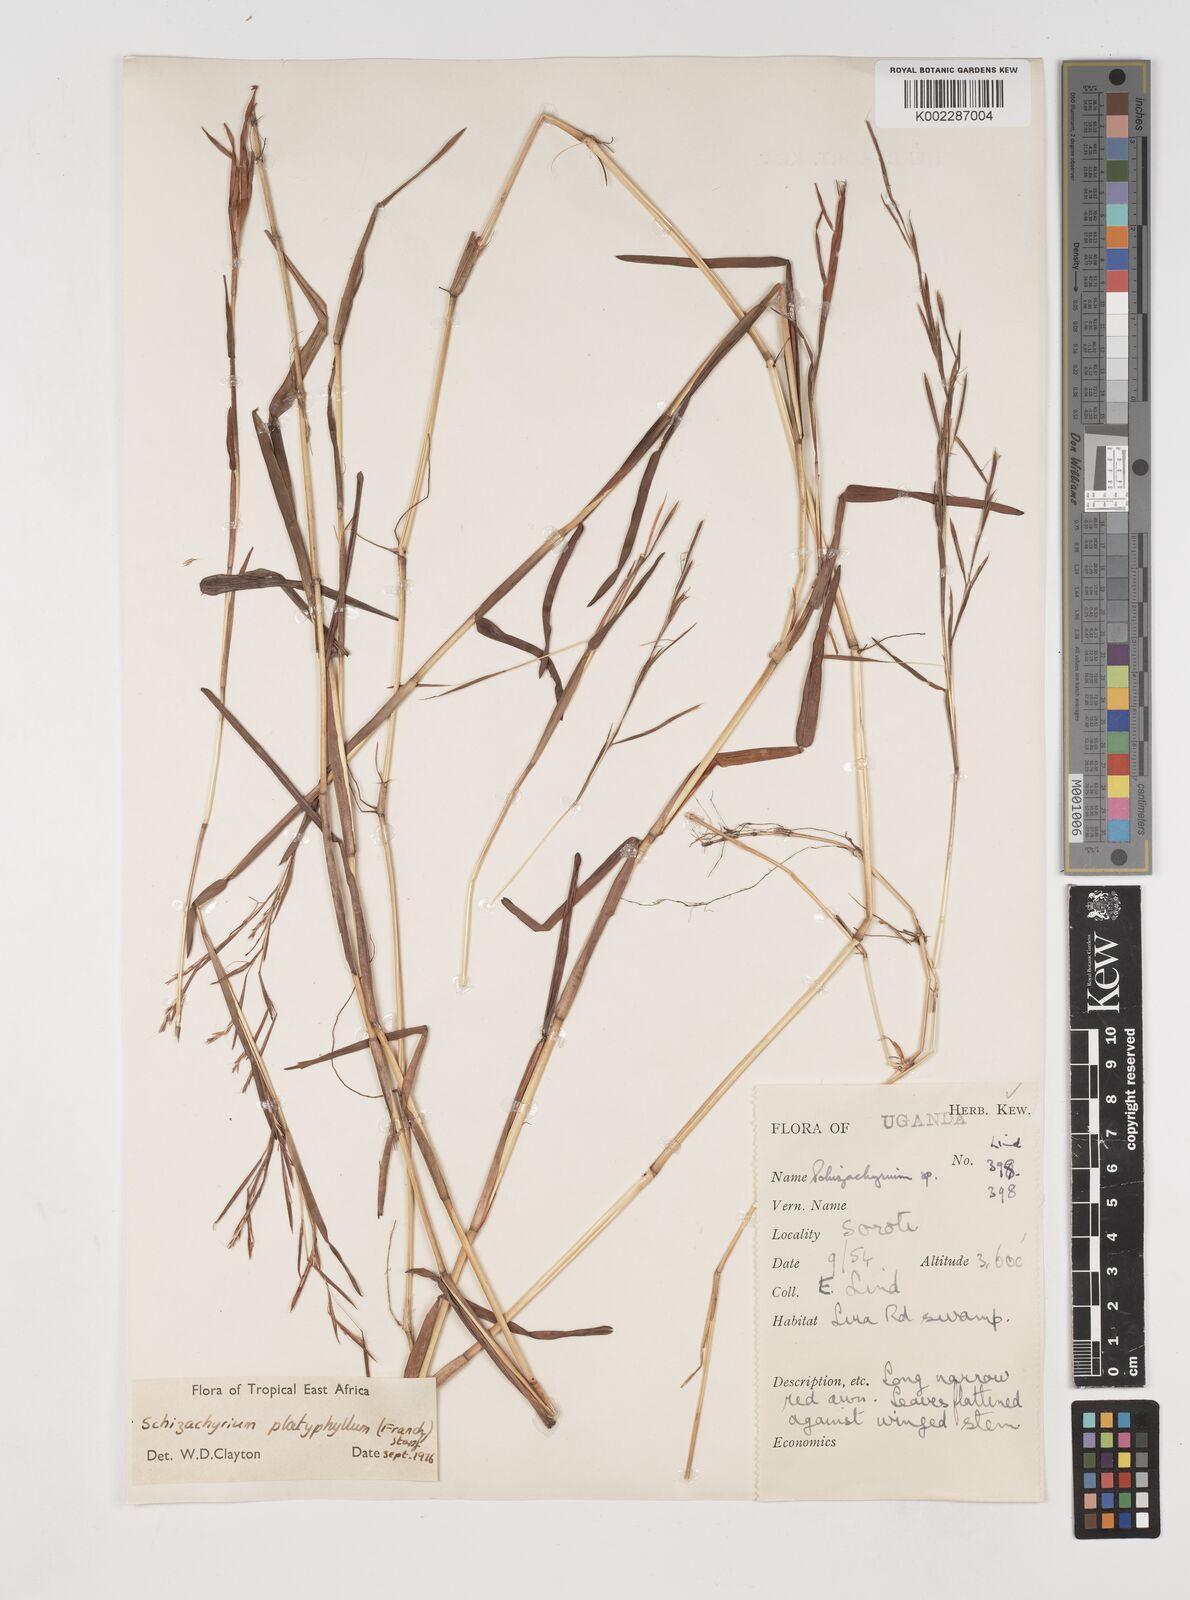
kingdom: Plantae
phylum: Tracheophyta
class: Liliopsida
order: Poales
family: Poaceae
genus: Schizachyrium
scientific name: Schizachyrium platyphyllum
